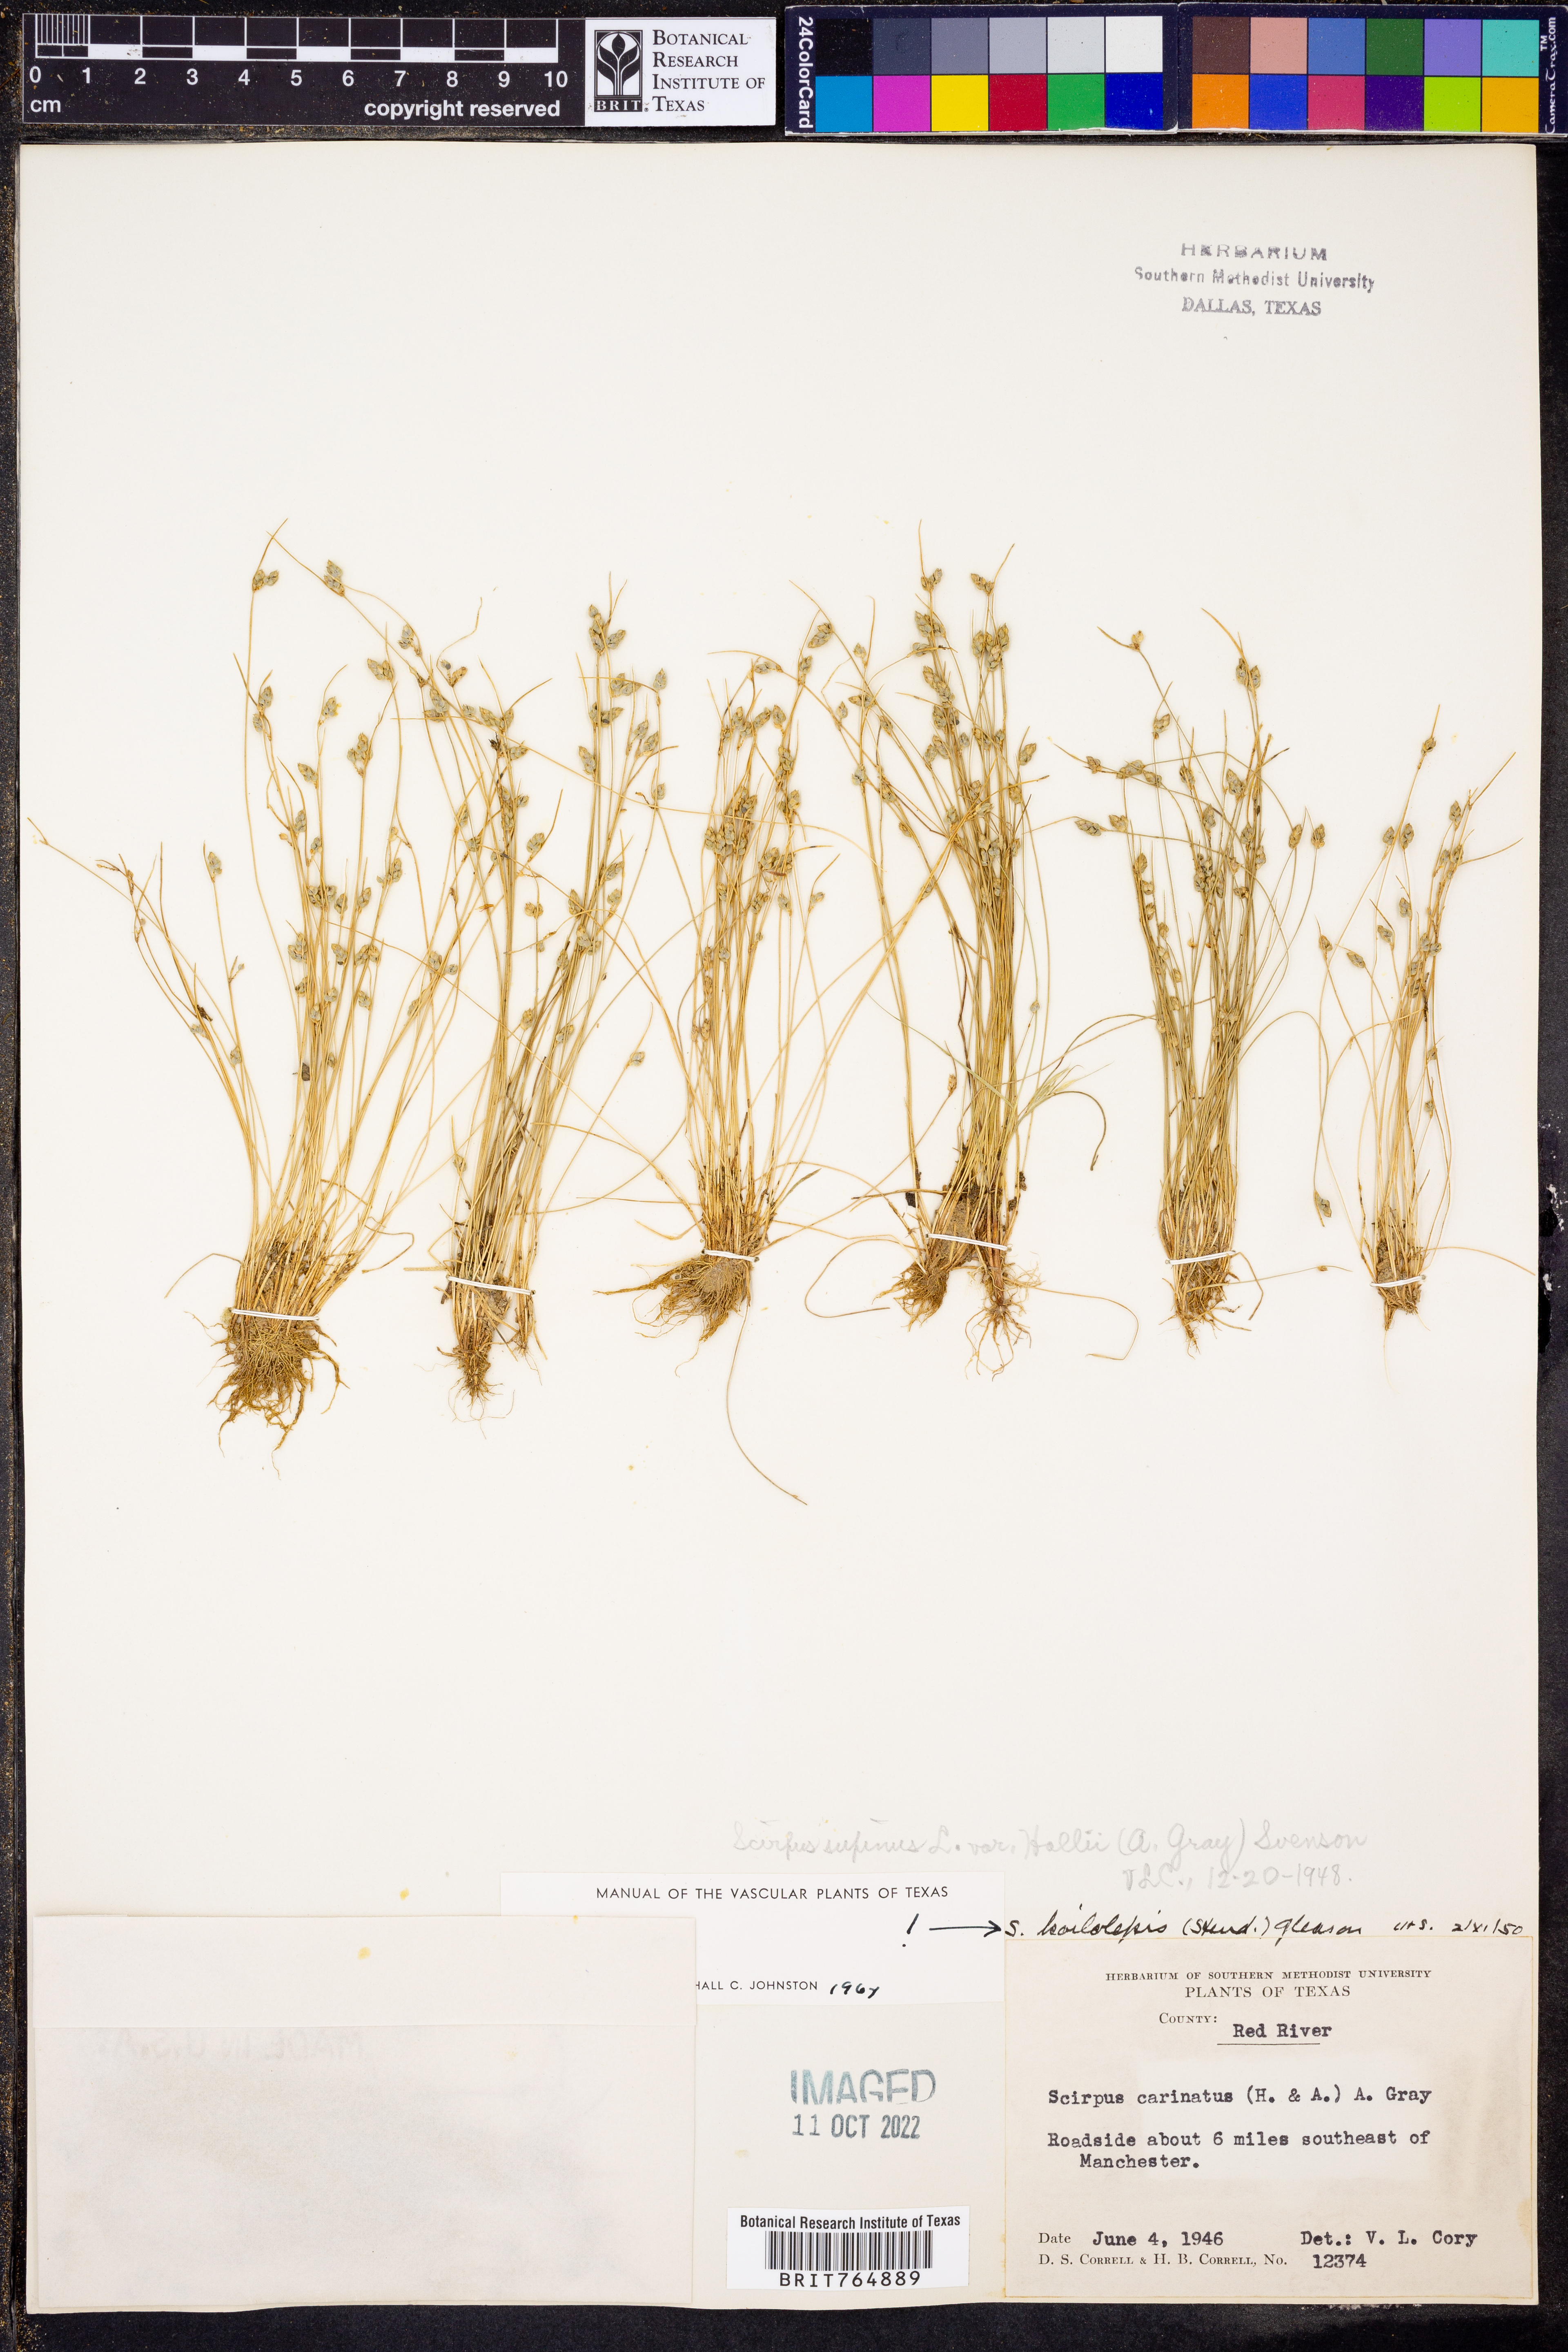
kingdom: Plantae
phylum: Tracheophyta
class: Liliopsida
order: Poales
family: Cyperaceae
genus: Schoenoplectiella
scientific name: Schoenoplectiella hallii
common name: Hall's bullrush
